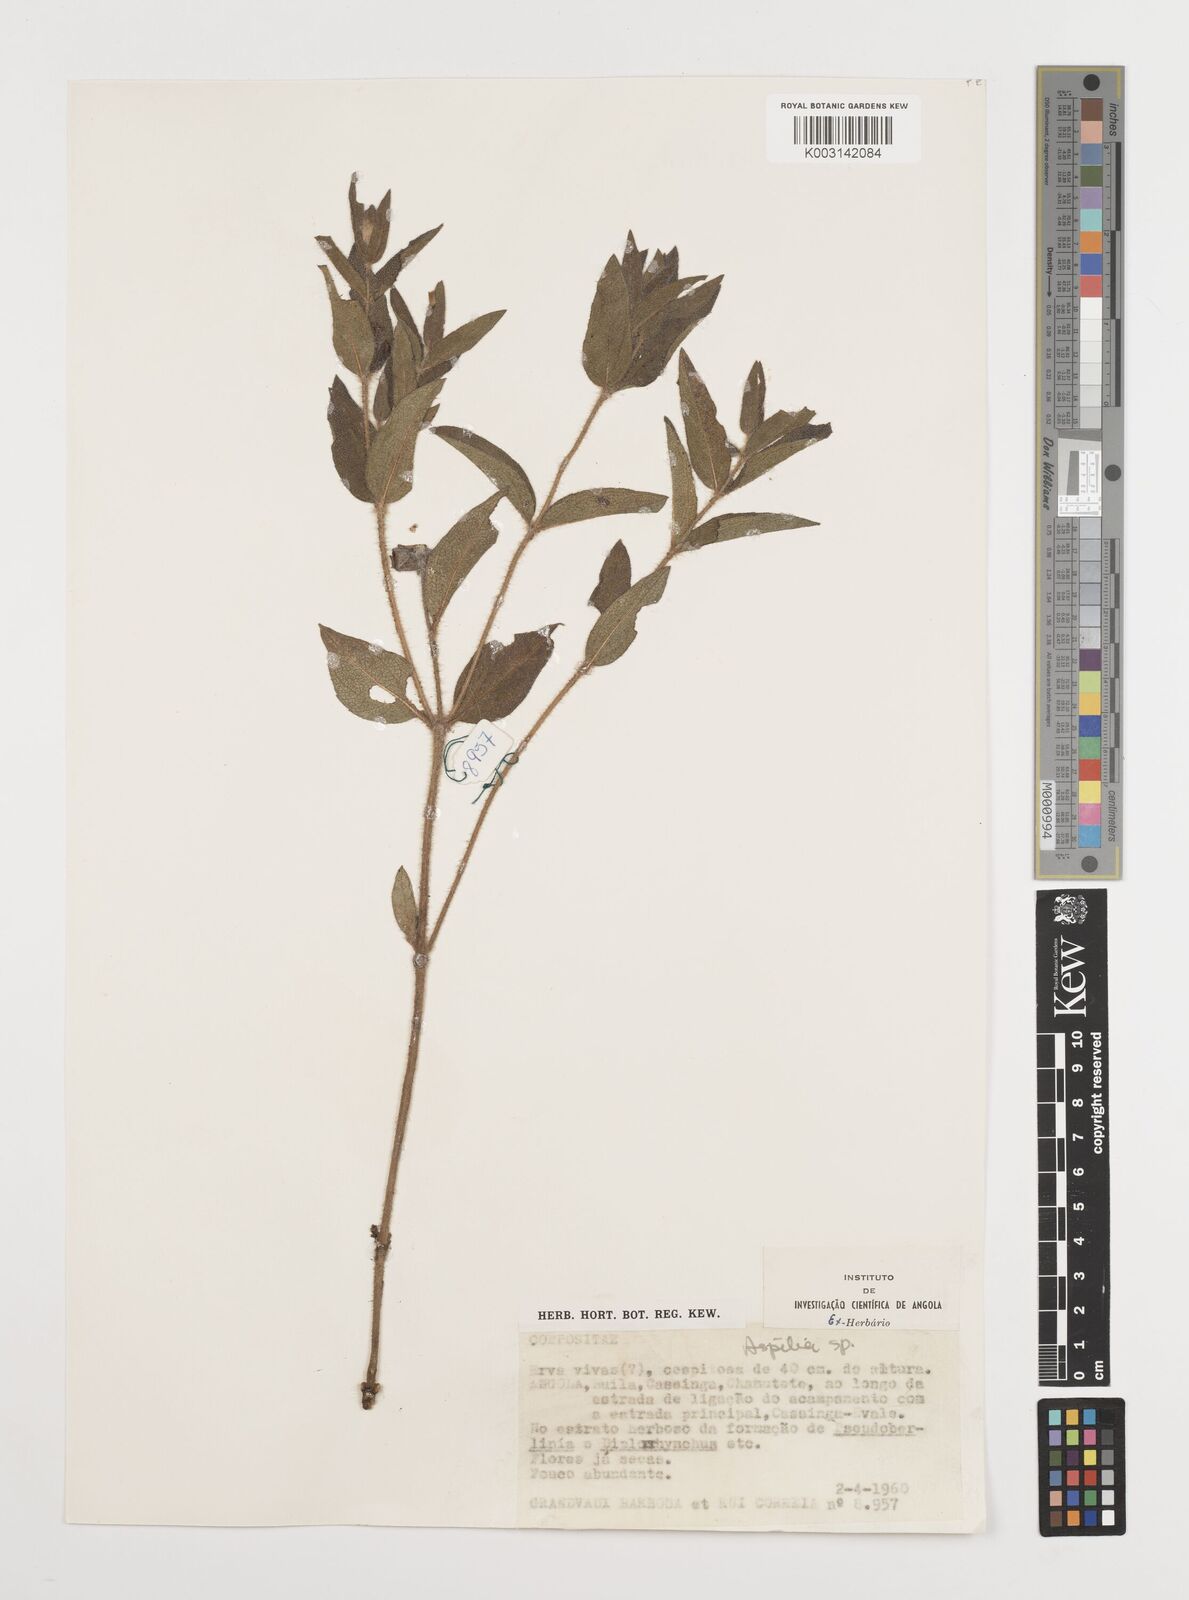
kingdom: Plantae
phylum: Tracheophyta
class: Magnoliopsida
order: Asterales
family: Asteraceae
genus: Aspilia
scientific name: Aspilia angolensis
